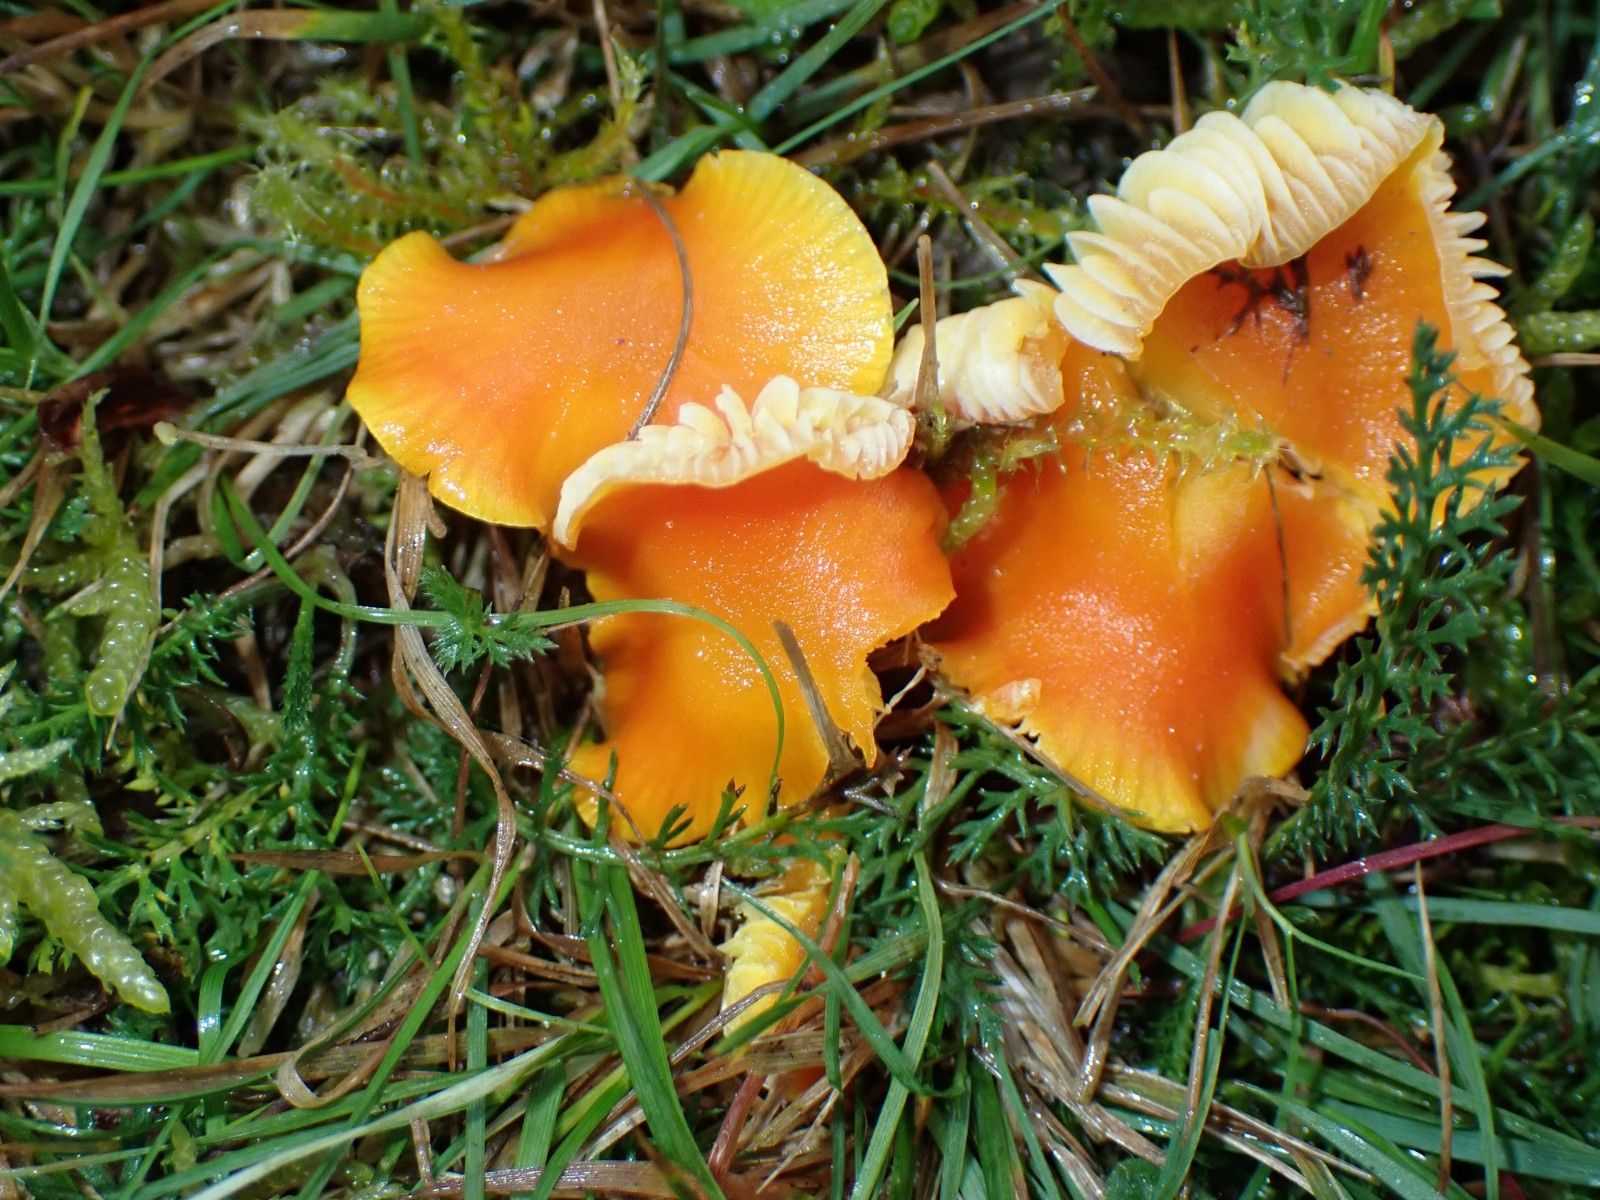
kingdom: Fungi
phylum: Basidiomycota
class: Agaricomycetes
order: Agaricales
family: Hygrophoraceae
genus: Hygrocybe
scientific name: Hygrocybe
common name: vokshat
